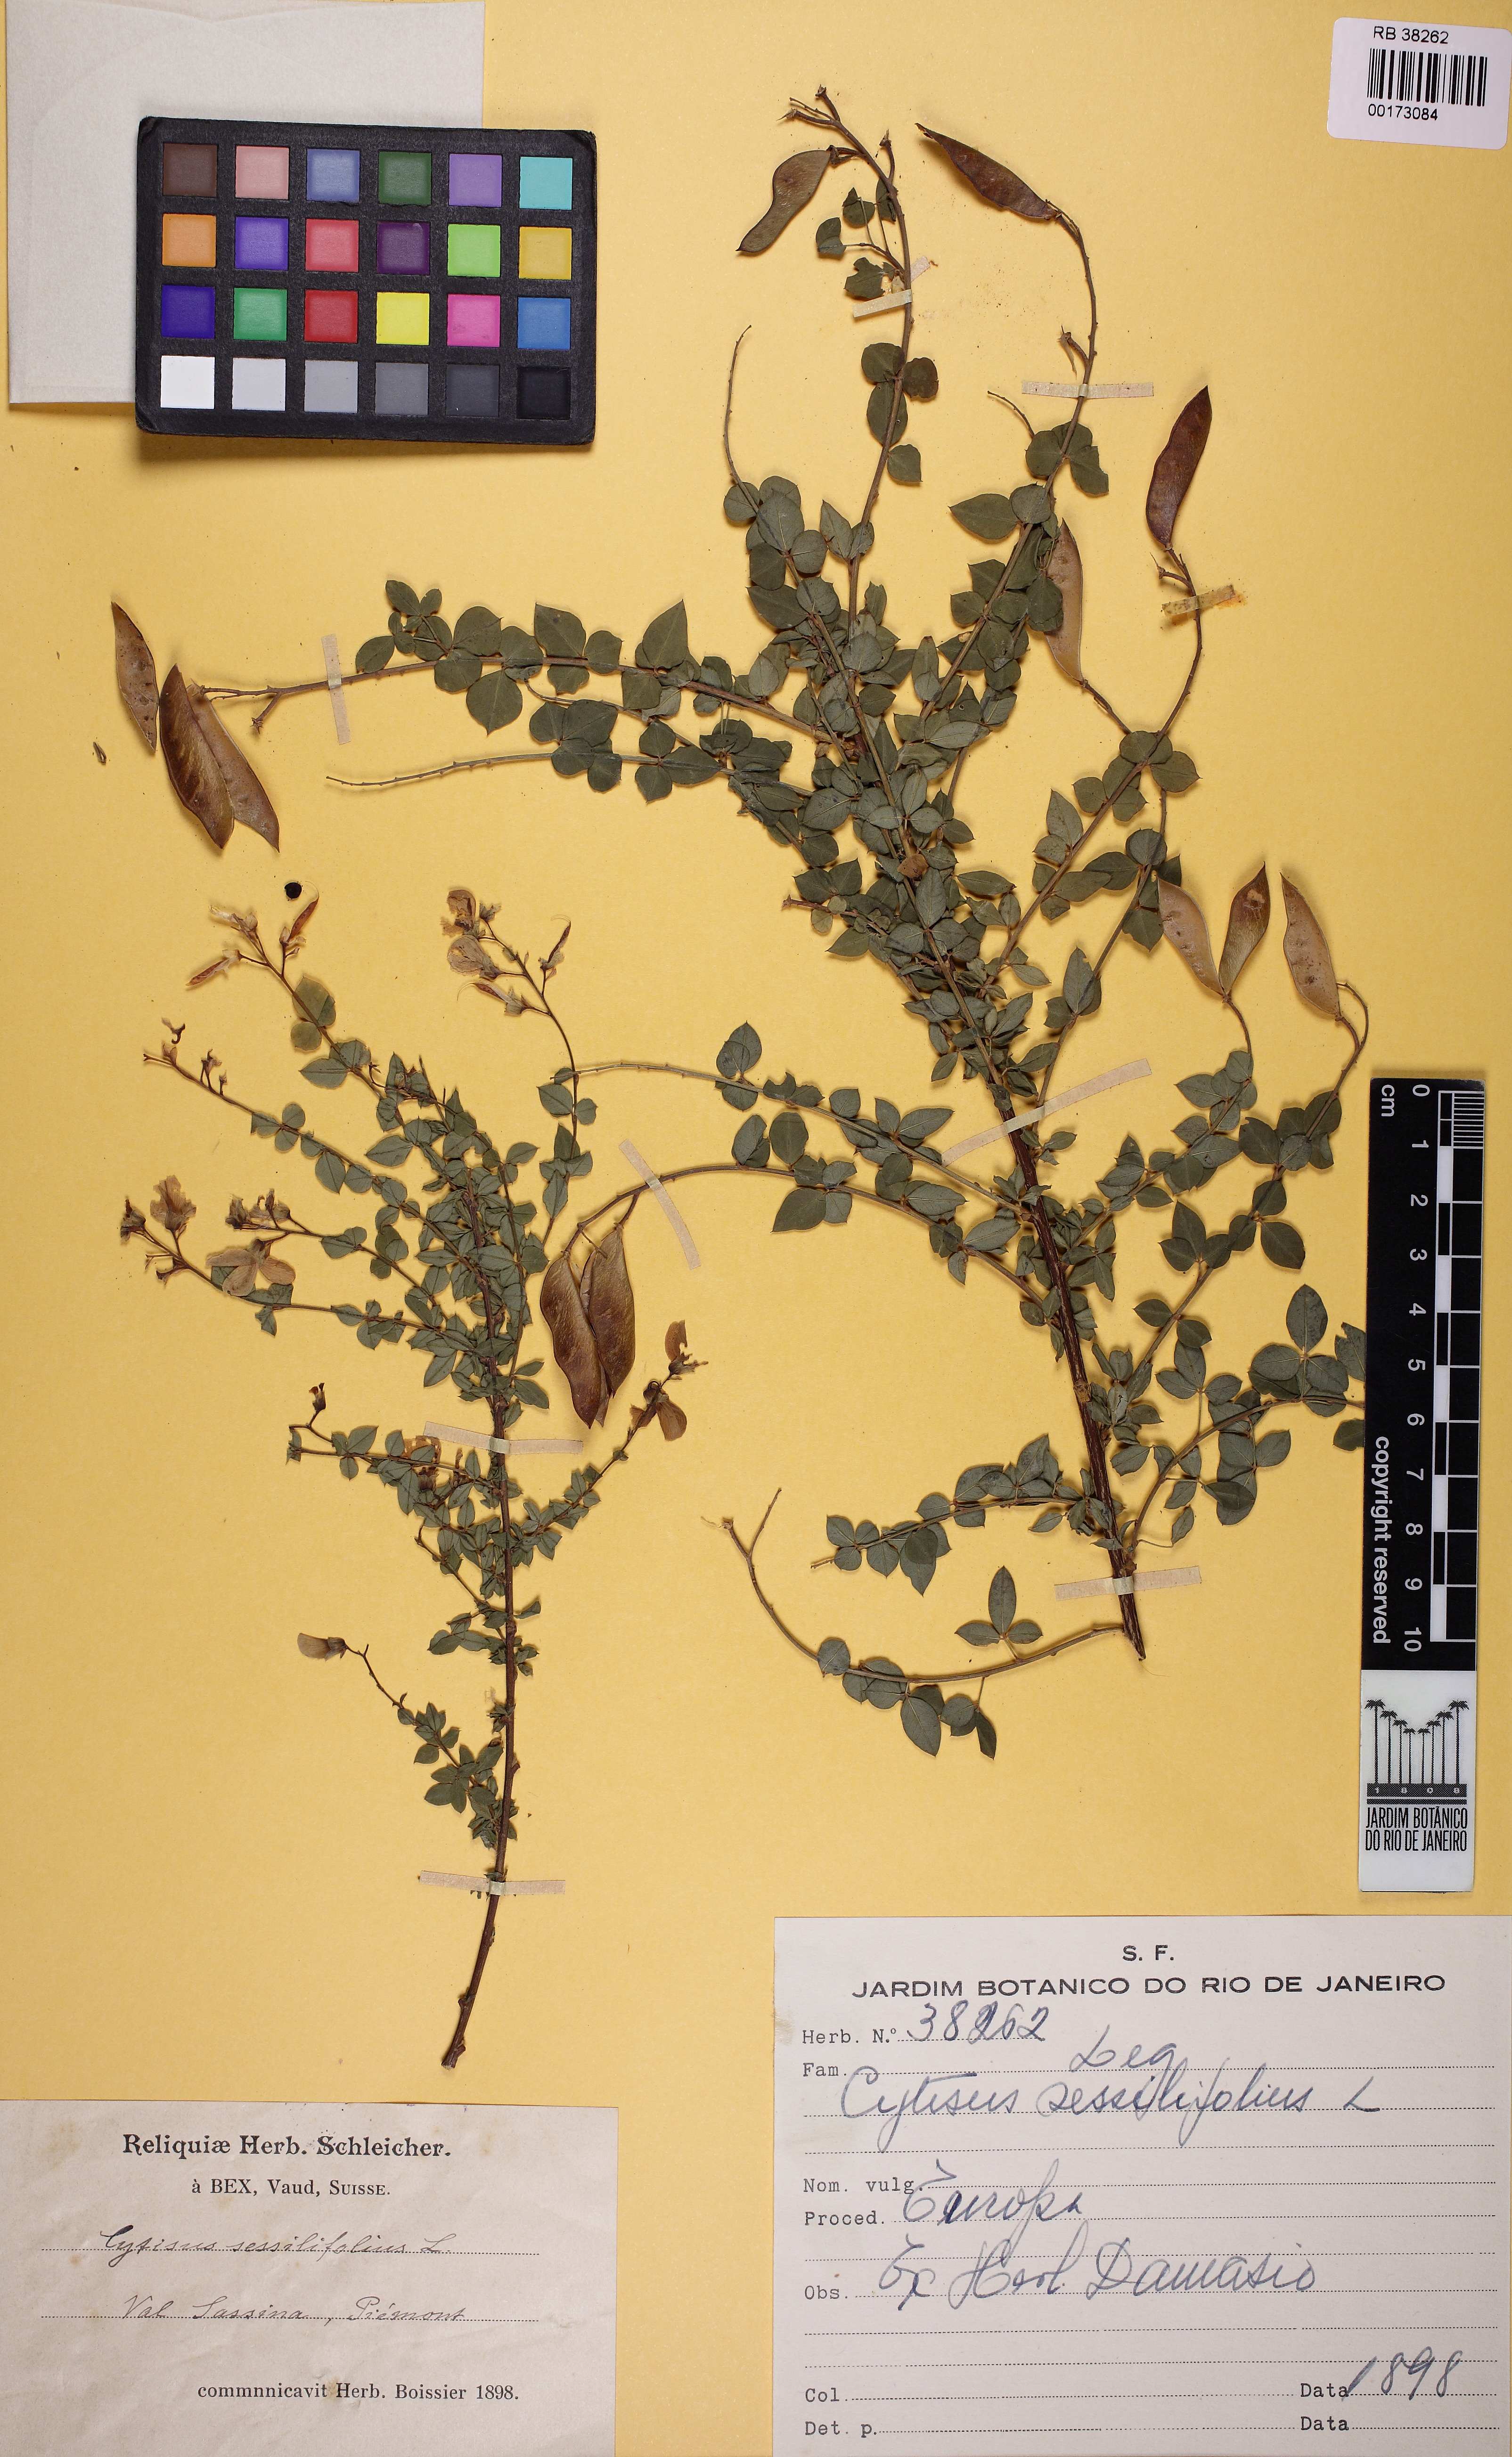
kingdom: Plantae
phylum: Tracheophyta
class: Magnoliopsida
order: Fabales
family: Fabaceae
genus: Cytisophyllum
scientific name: Cytisophyllum sessilifolium
